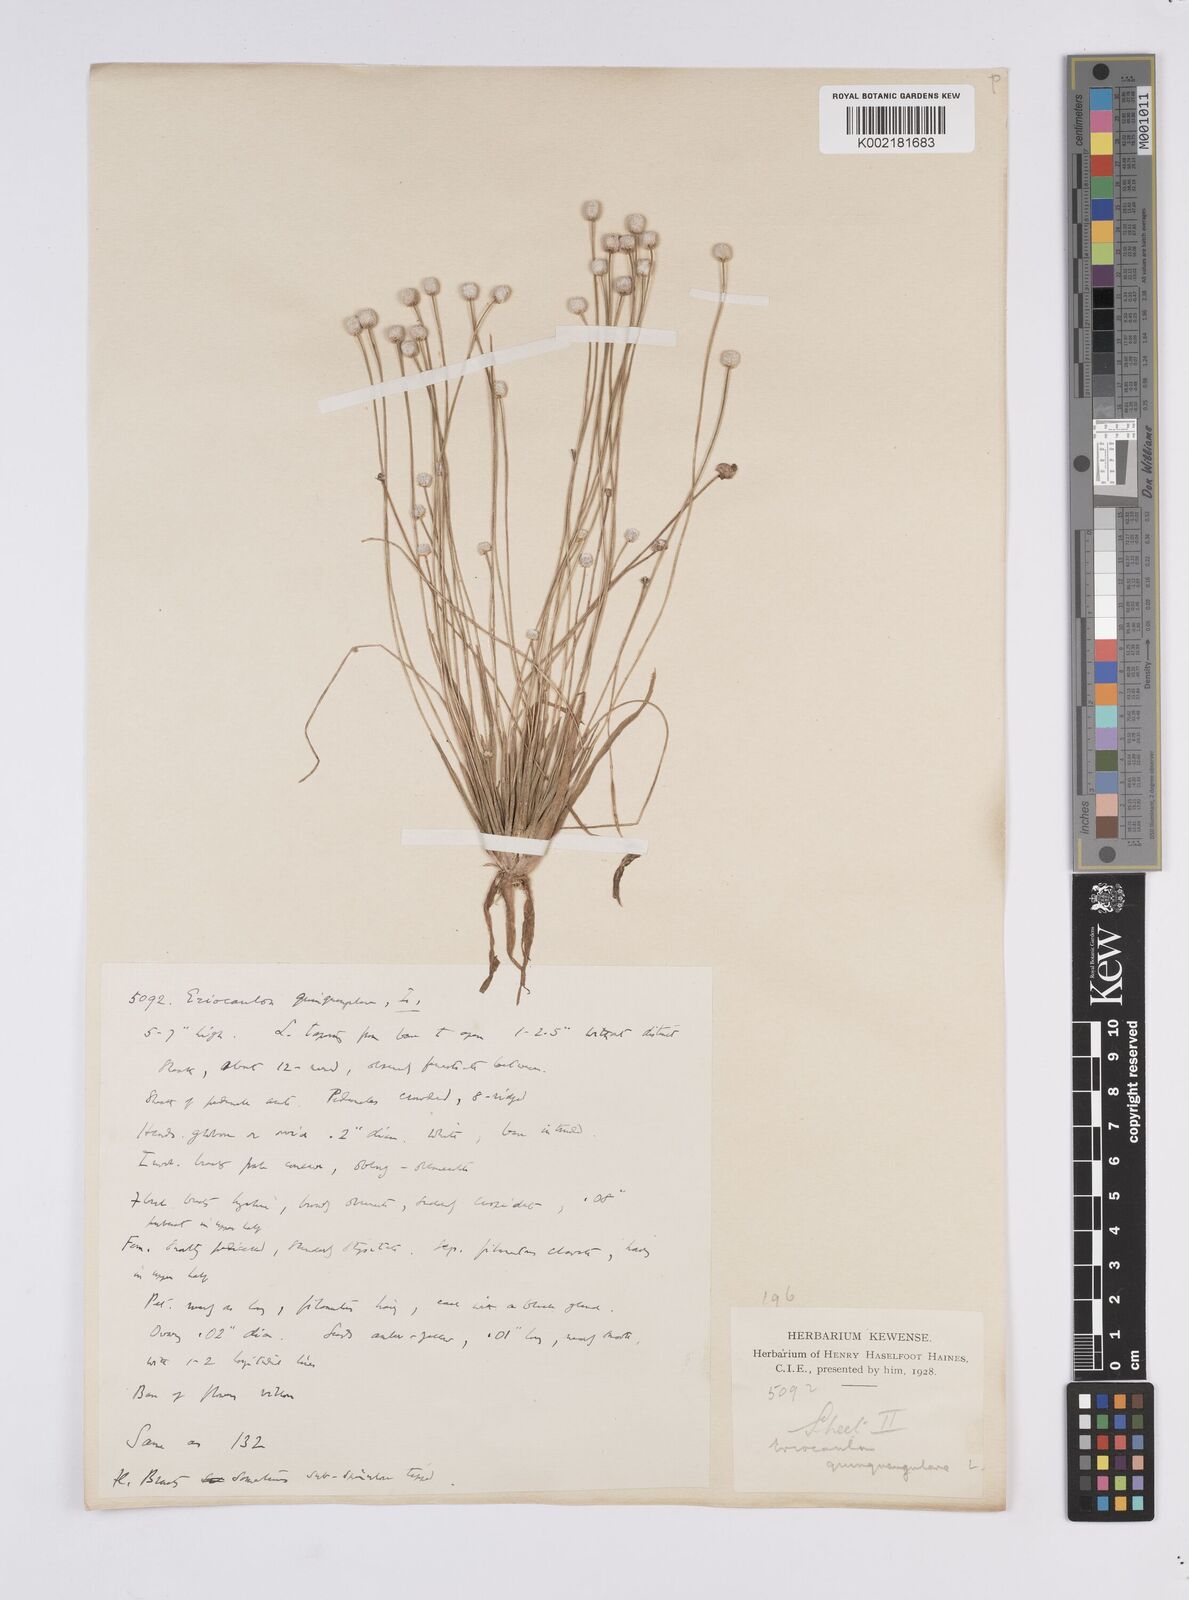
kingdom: Plantae
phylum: Tracheophyta
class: Liliopsida
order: Poales
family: Eriocaulaceae
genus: Eriocaulon
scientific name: Eriocaulon quinquangulare
